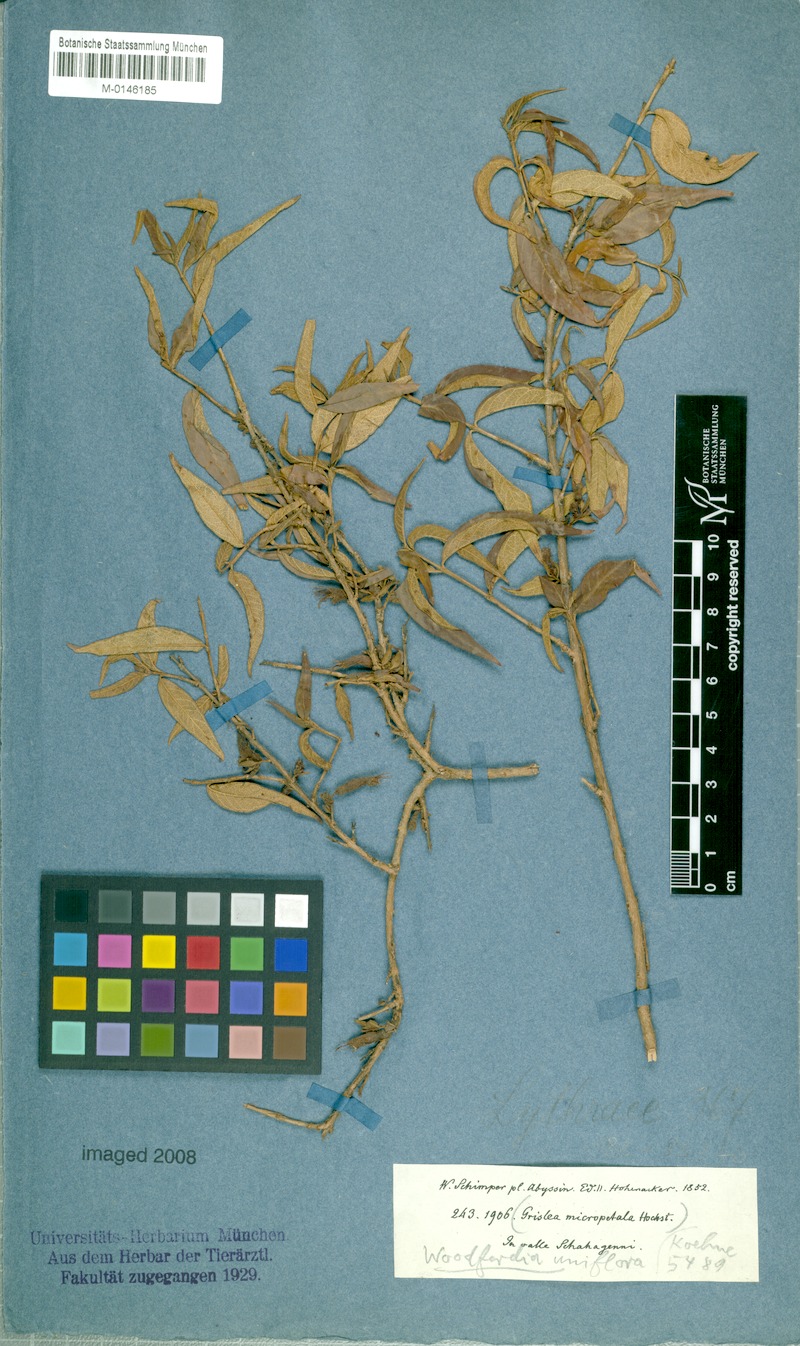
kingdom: Plantae
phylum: Tracheophyta
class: Magnoliopsida
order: Myrtales
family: Lythraceae
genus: Woodfordia
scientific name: Woodfordia uniflora
